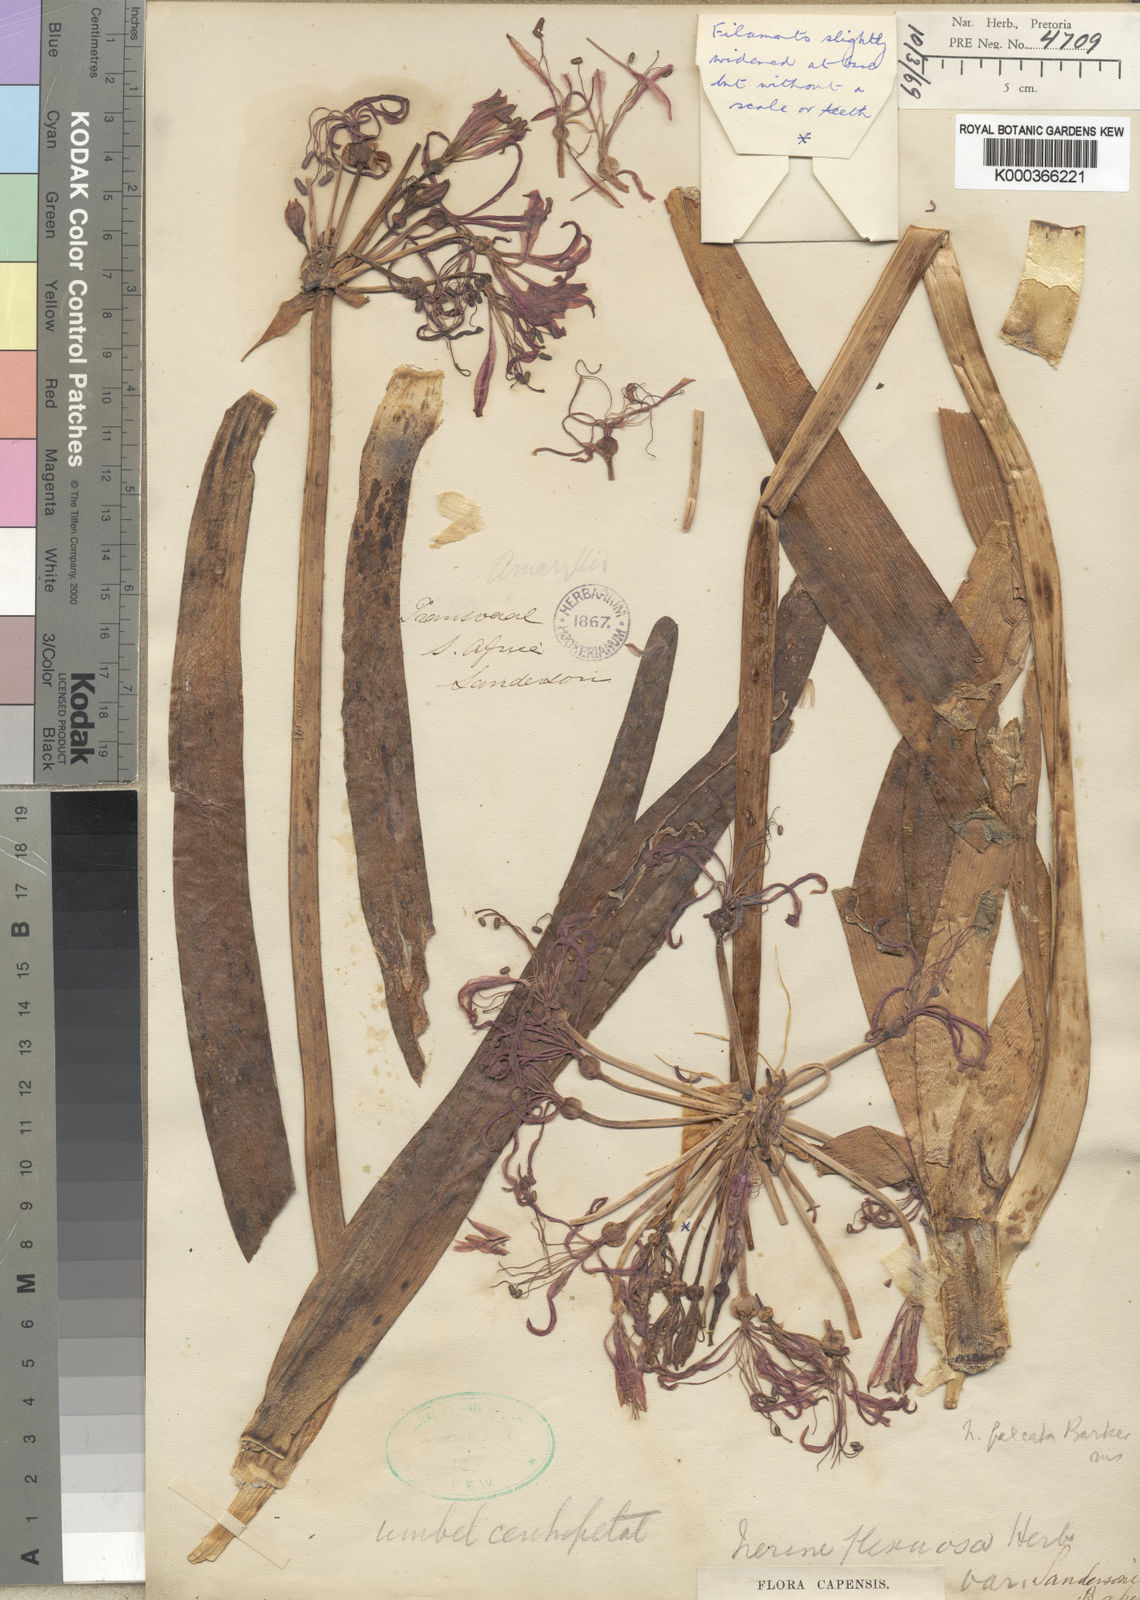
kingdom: Plantae
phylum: Tracheophyta
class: Liliopsida
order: Asparagales
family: Amaryllidaceae
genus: Nerine
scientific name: Nerine undulata
